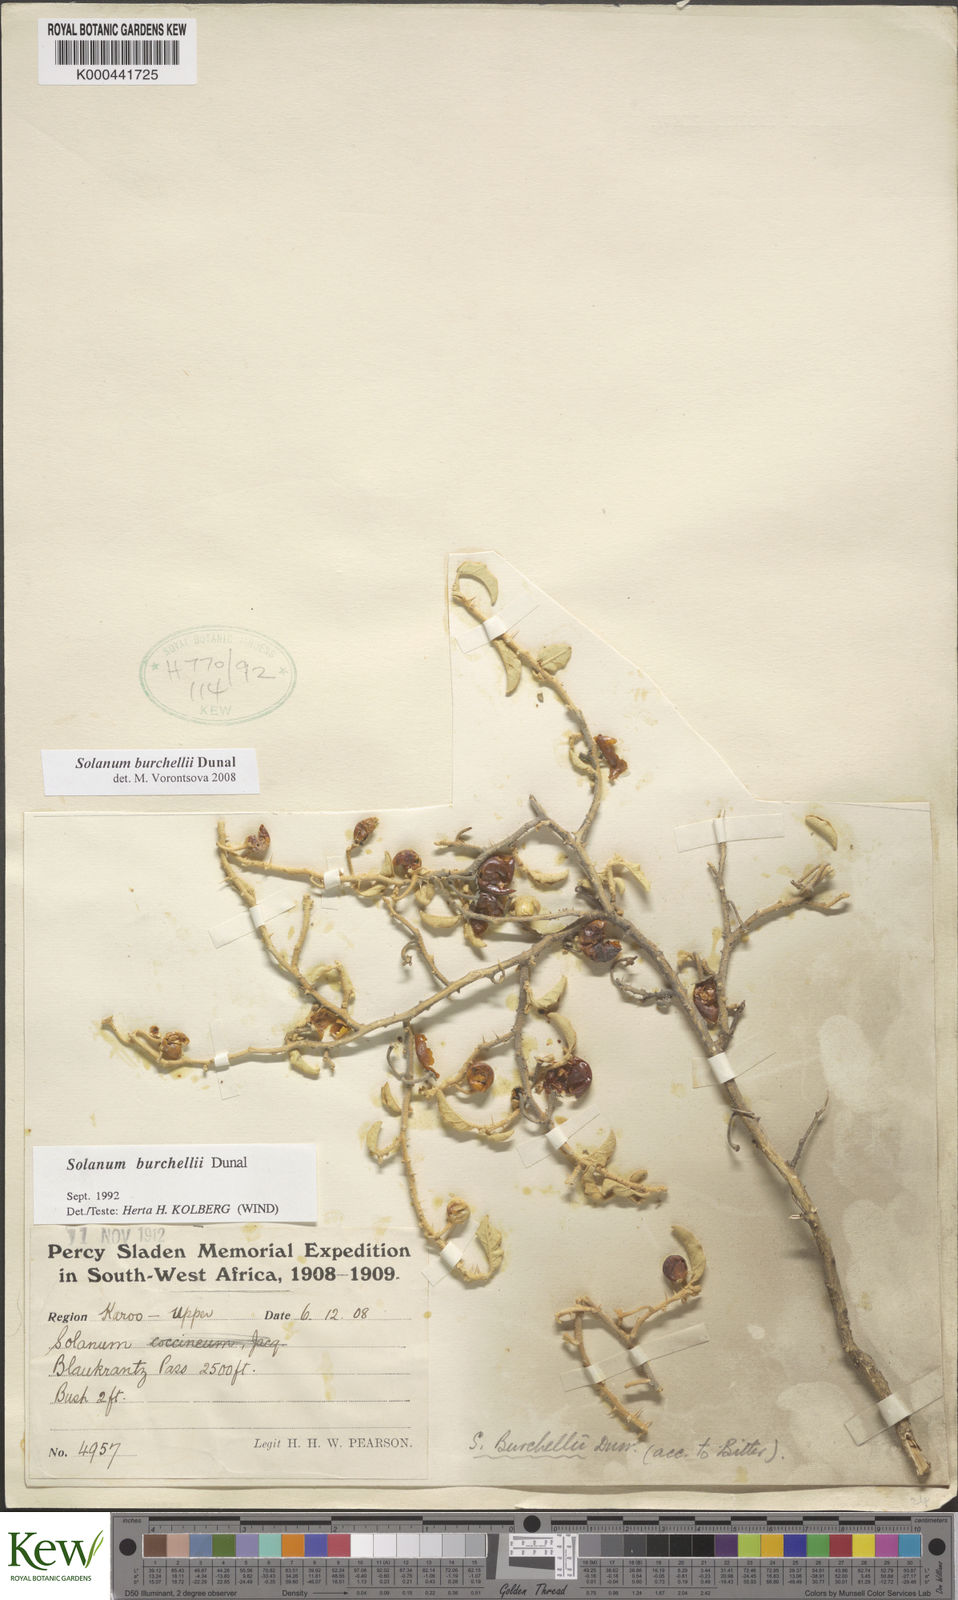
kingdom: Plantae
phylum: Tracheophyta
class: Magnoliopsida
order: Solanales
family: Solanaceae
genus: Solanum
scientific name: Solanum burchellii
